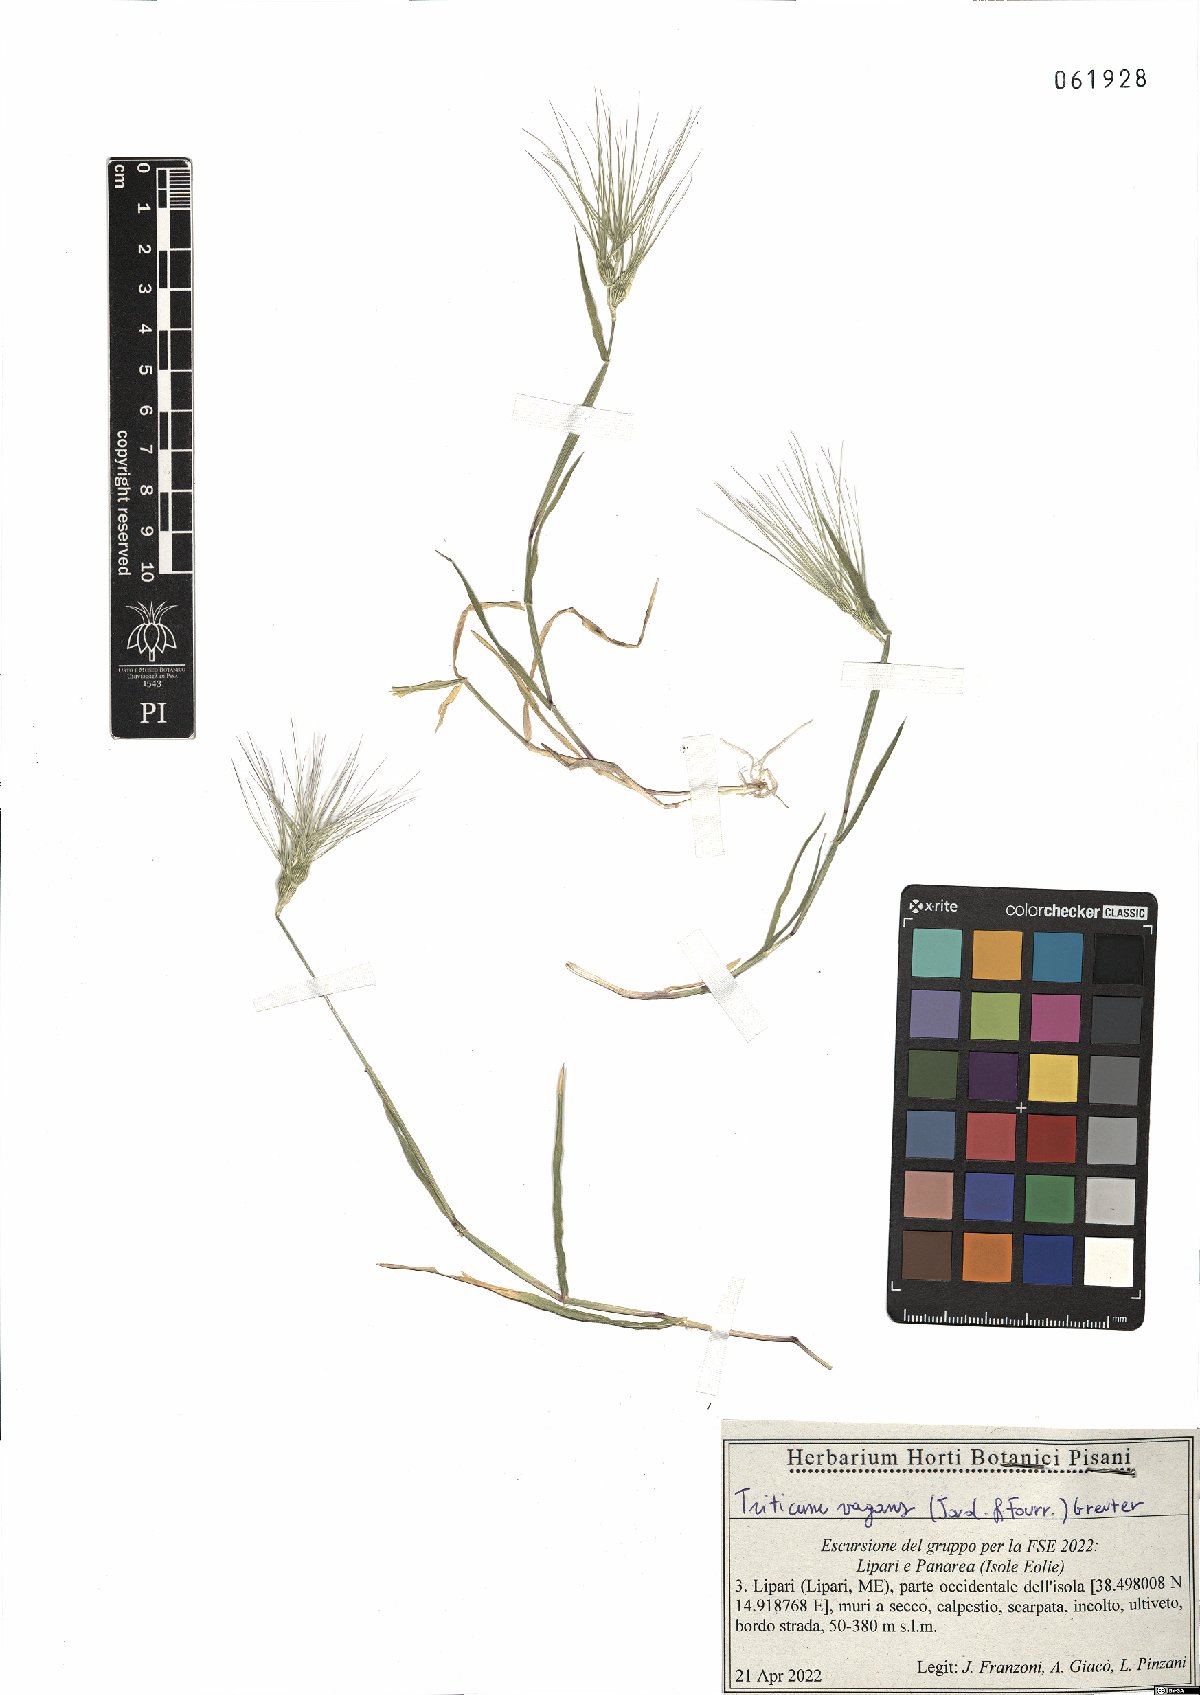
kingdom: Plantae
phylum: Tracheophyta
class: Liliopsida
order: Poales
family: Poaceae
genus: Aegilops
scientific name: Aegilops geniculata
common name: Ovate goat grass
